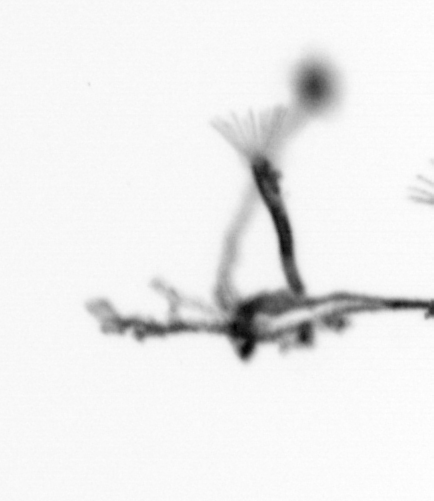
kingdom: Animalia
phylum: Cnidaria
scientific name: Cnidaria
